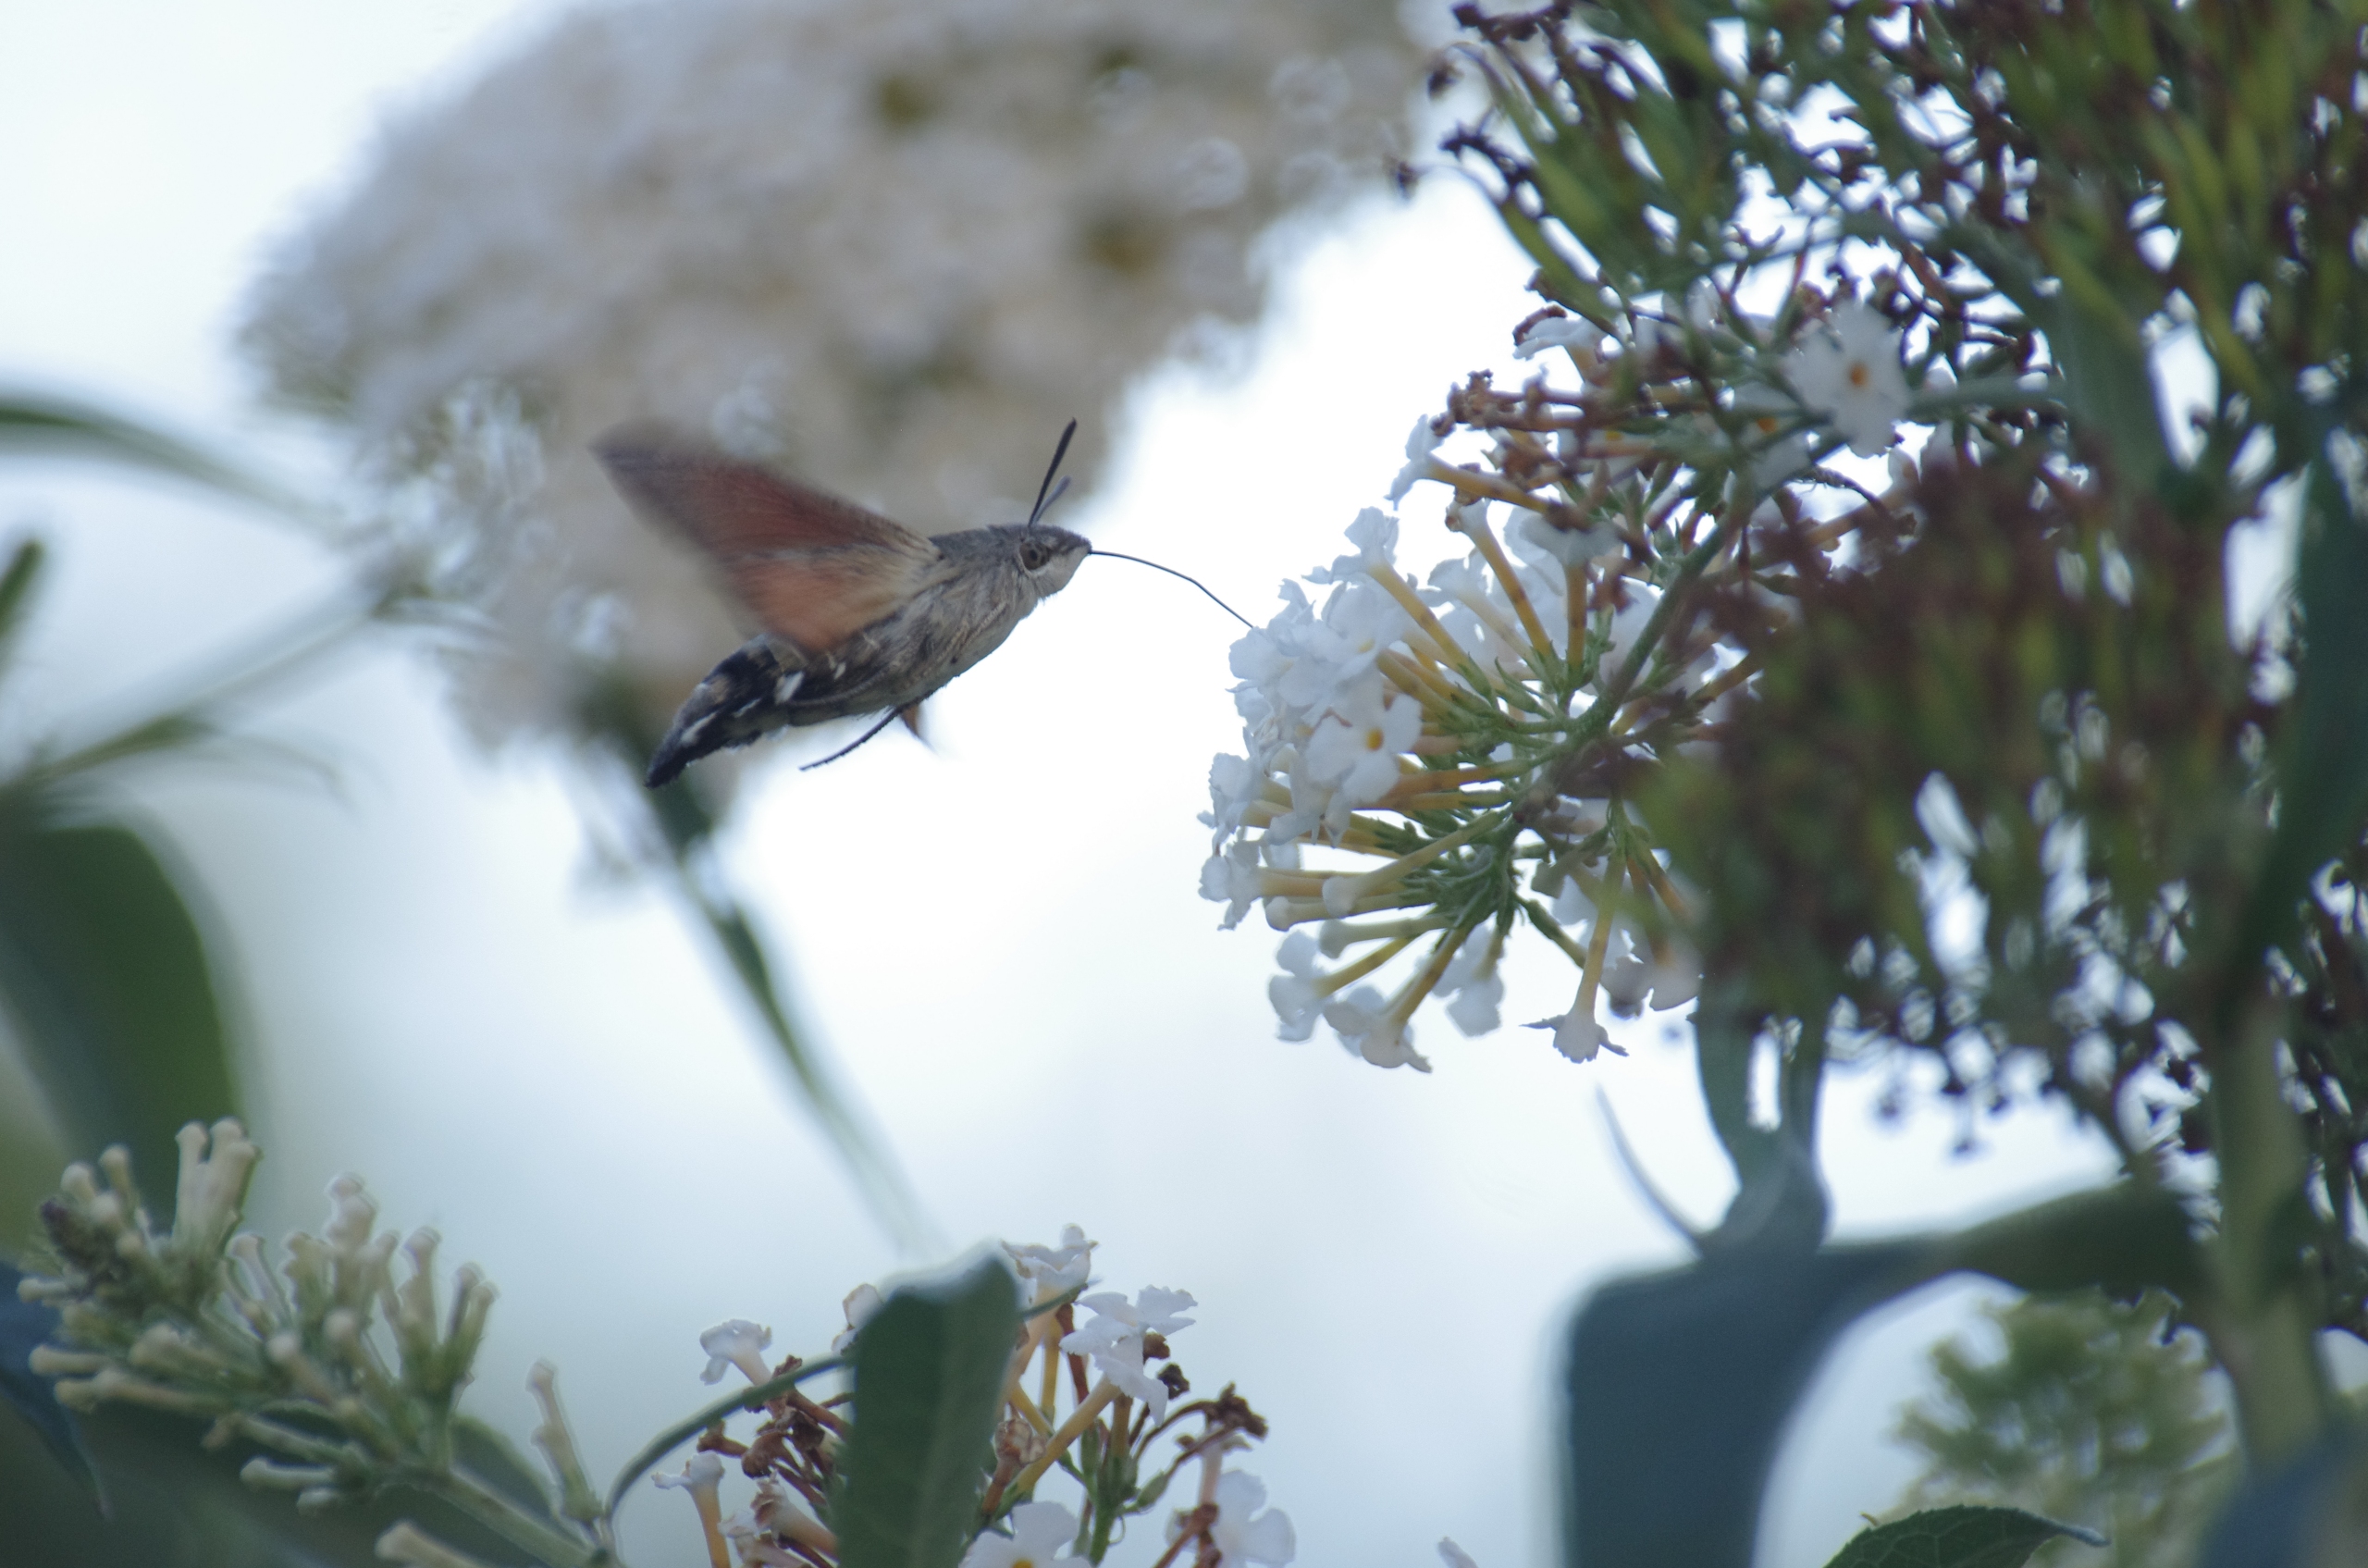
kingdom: Animalia
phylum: Arthropoda
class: Insecta
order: Lepidoptera
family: Sphingidae
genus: Macroglossum
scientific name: Macroglossum stellatarum
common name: Duehale
